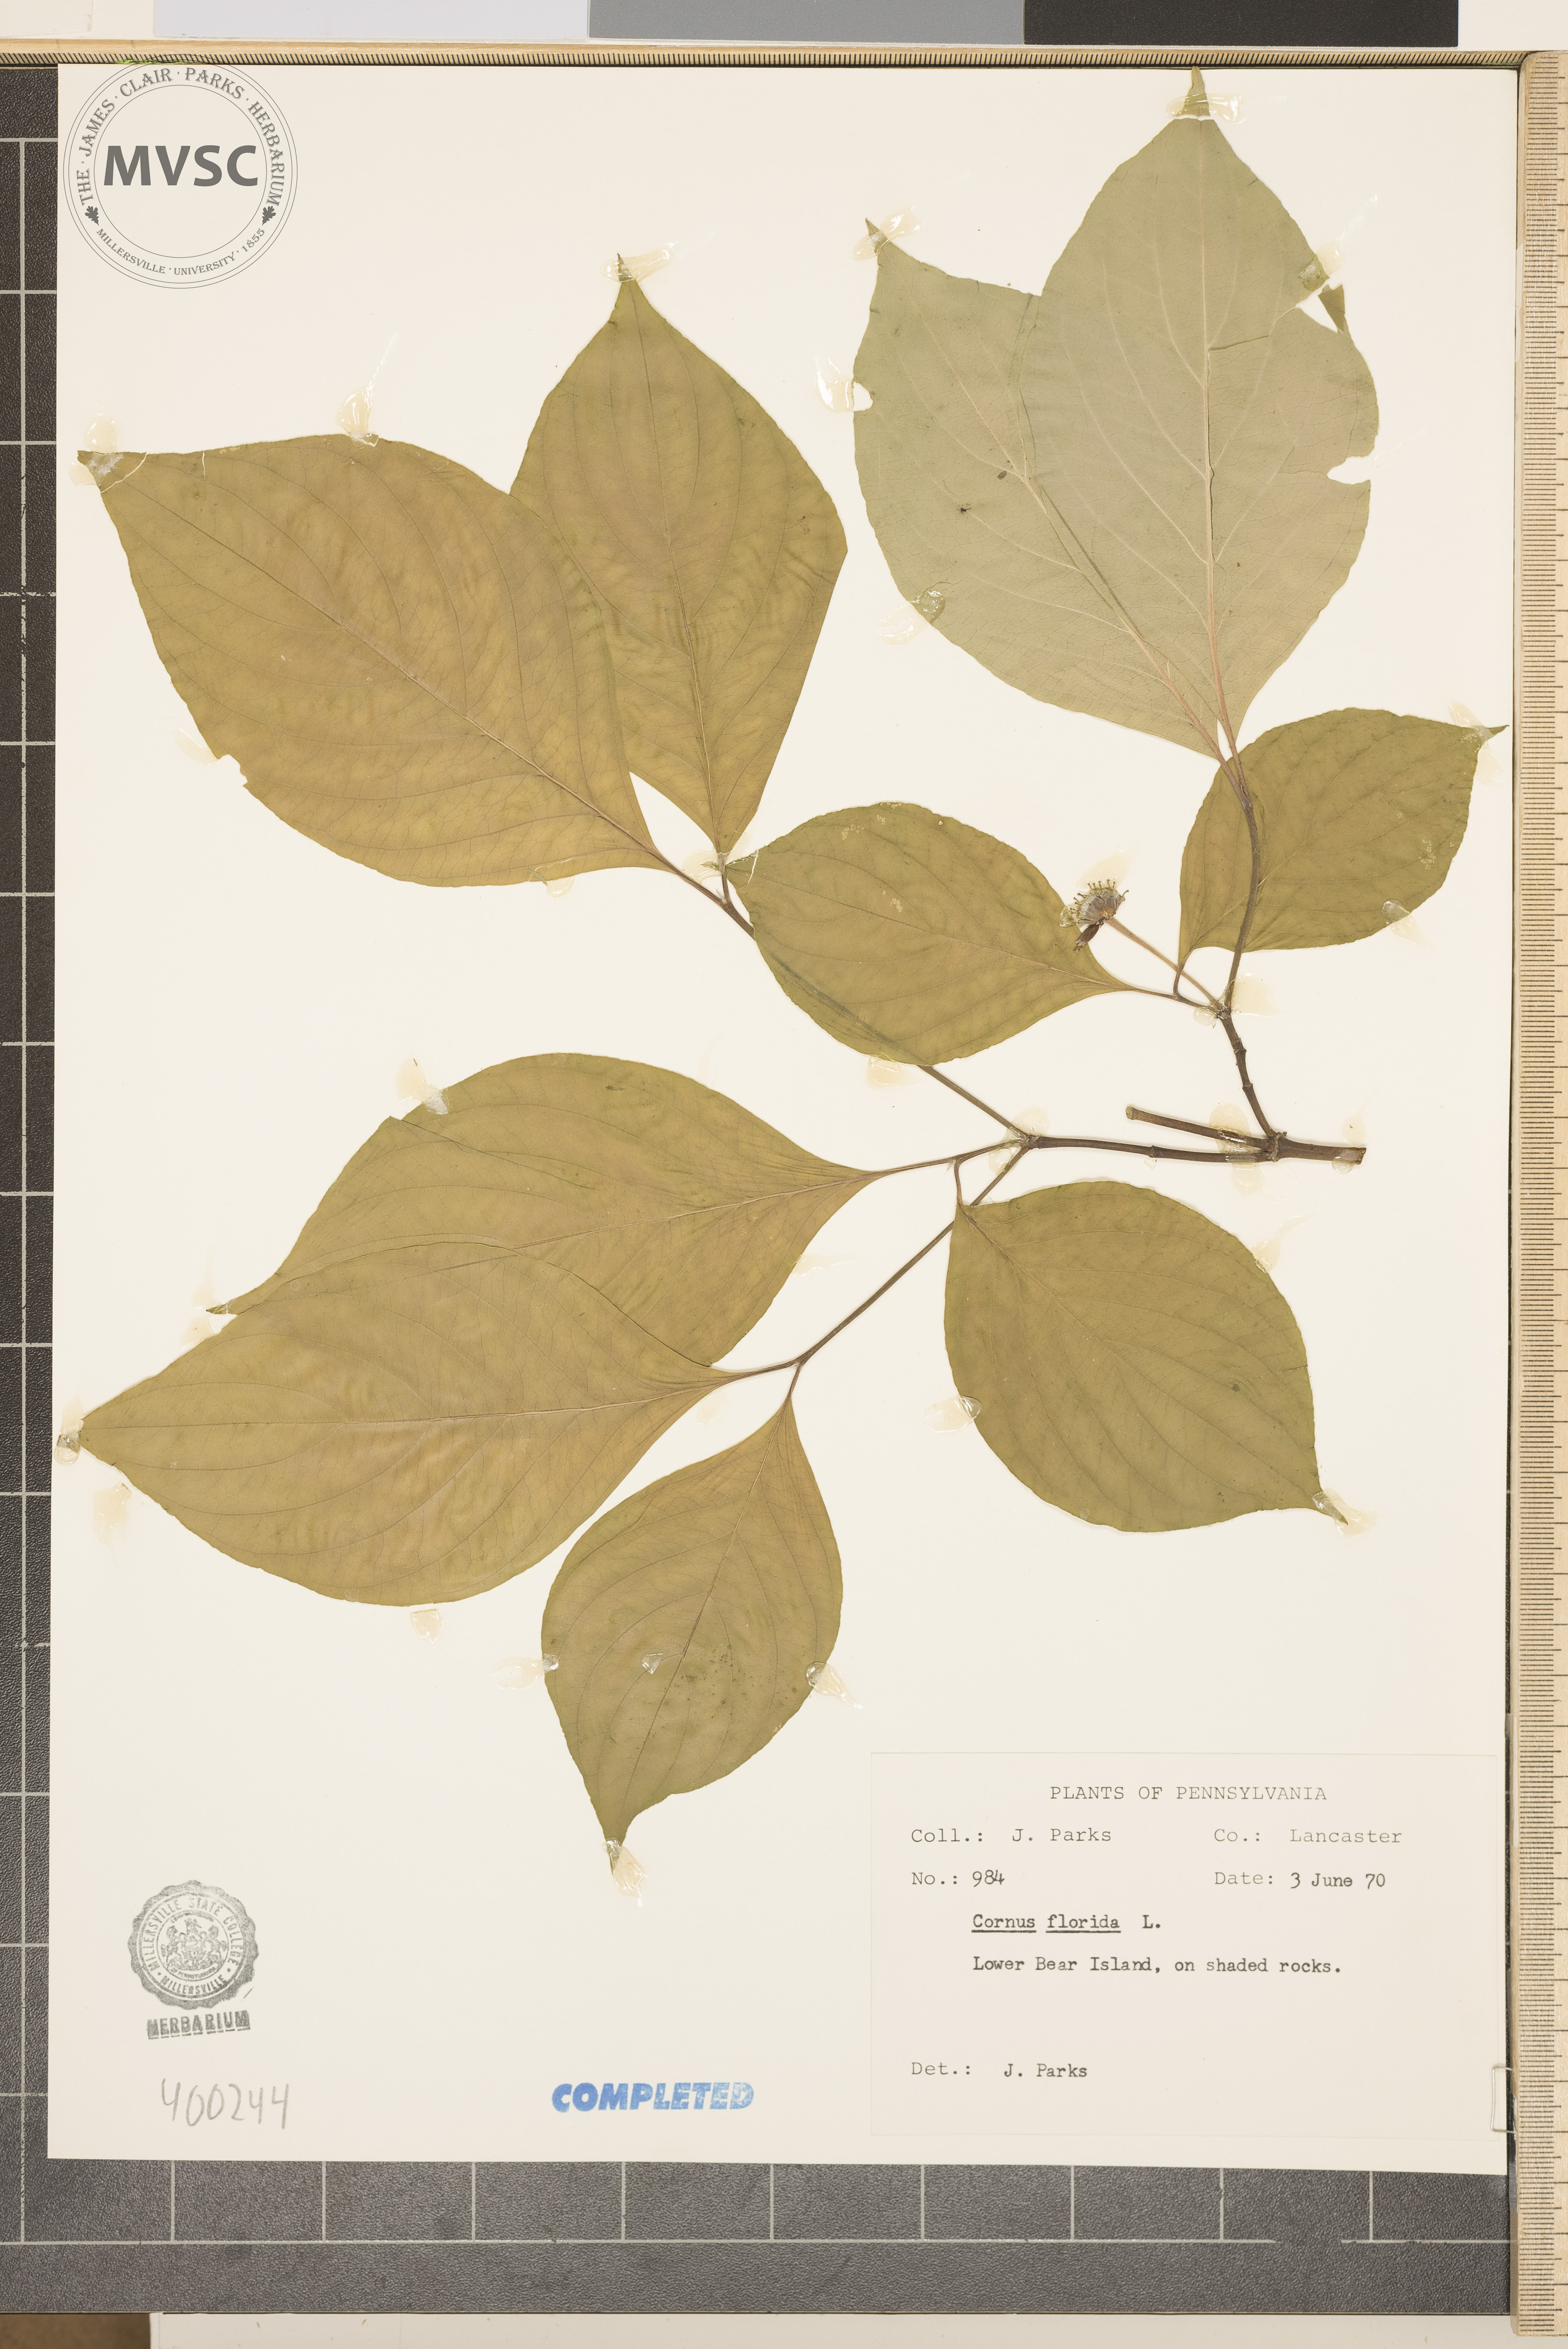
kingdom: Plantae
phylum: Tracheophyta
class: Magnoliopsida
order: Cornales
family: Cornaceae
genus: Cornus
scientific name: Cornus florida
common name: flowering dogwood
